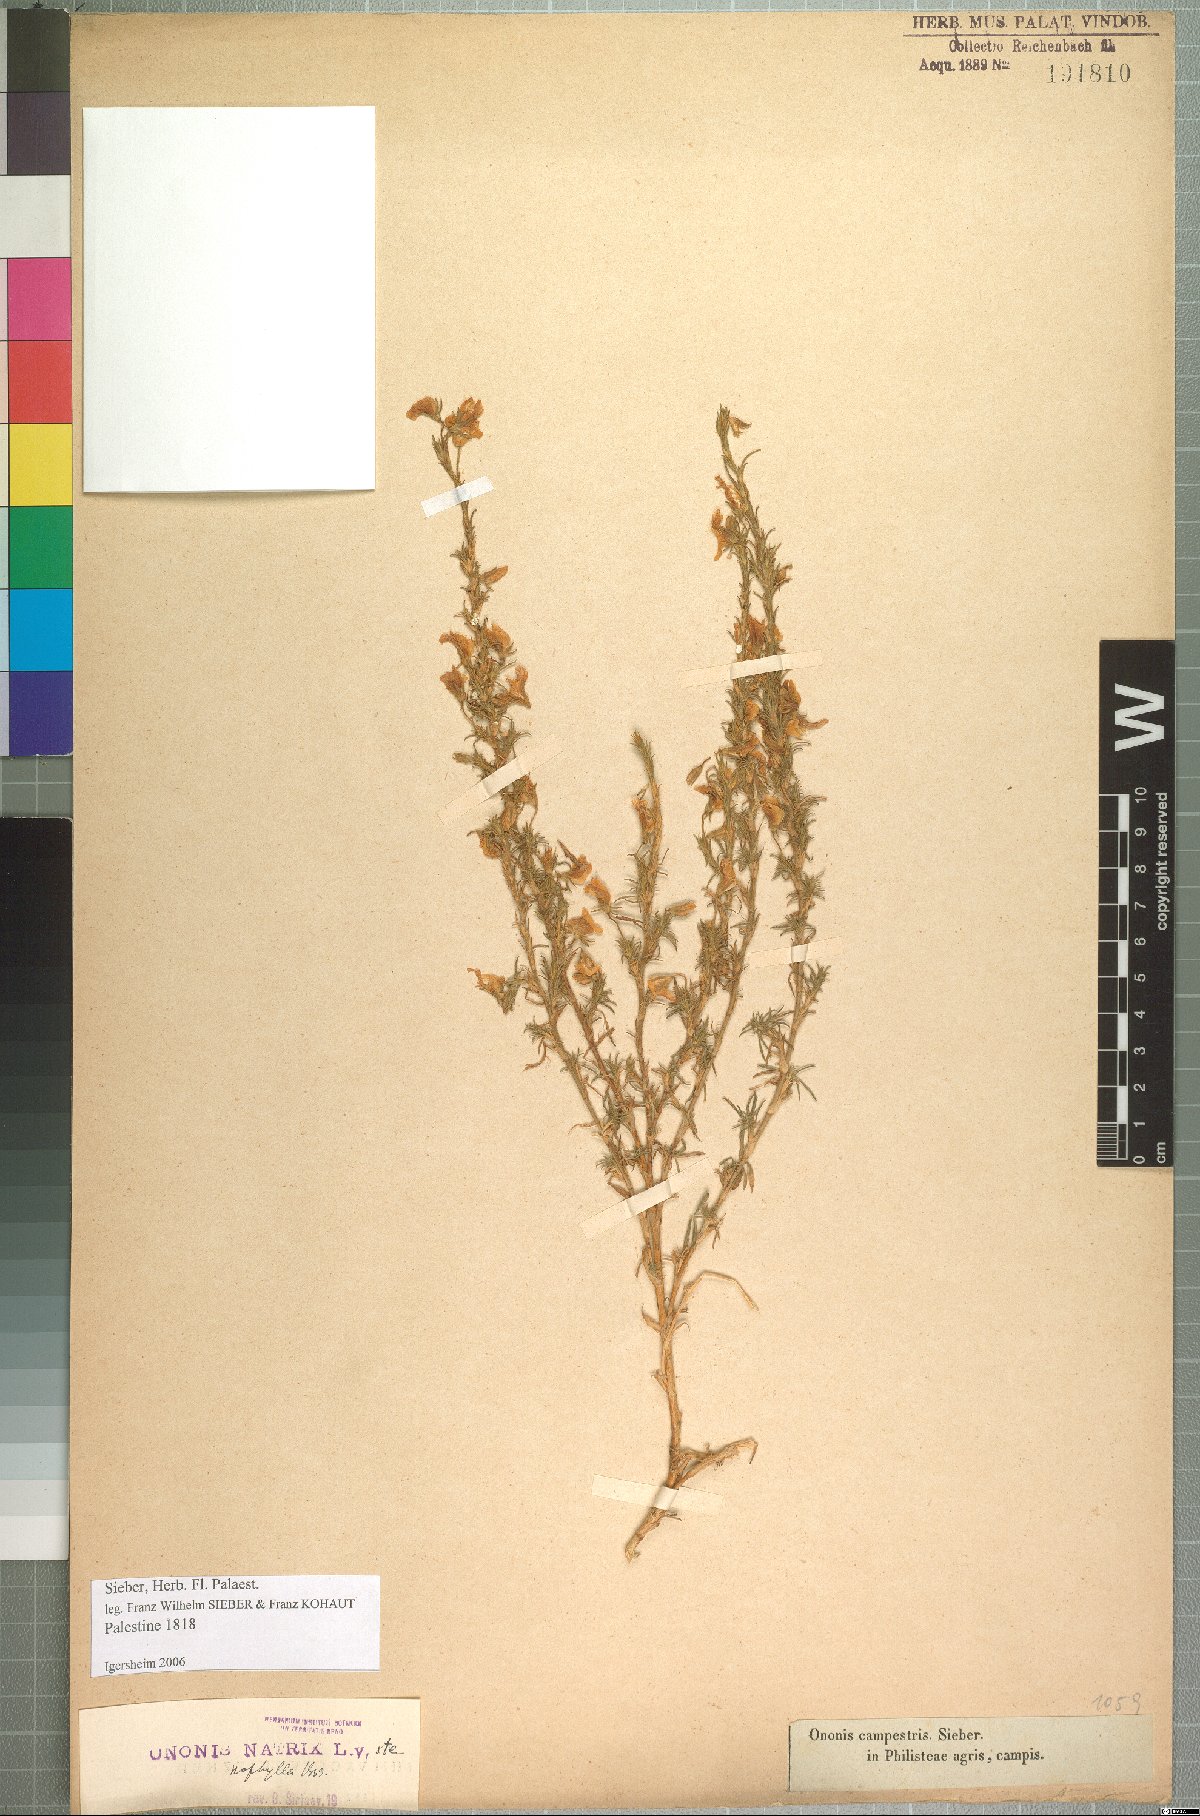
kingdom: Plantae
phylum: Tracheophyta
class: Magnoliopsida
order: Fabales
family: Fabaceae
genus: Ononis
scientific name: Ononis natrix
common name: Yellow restharrow
